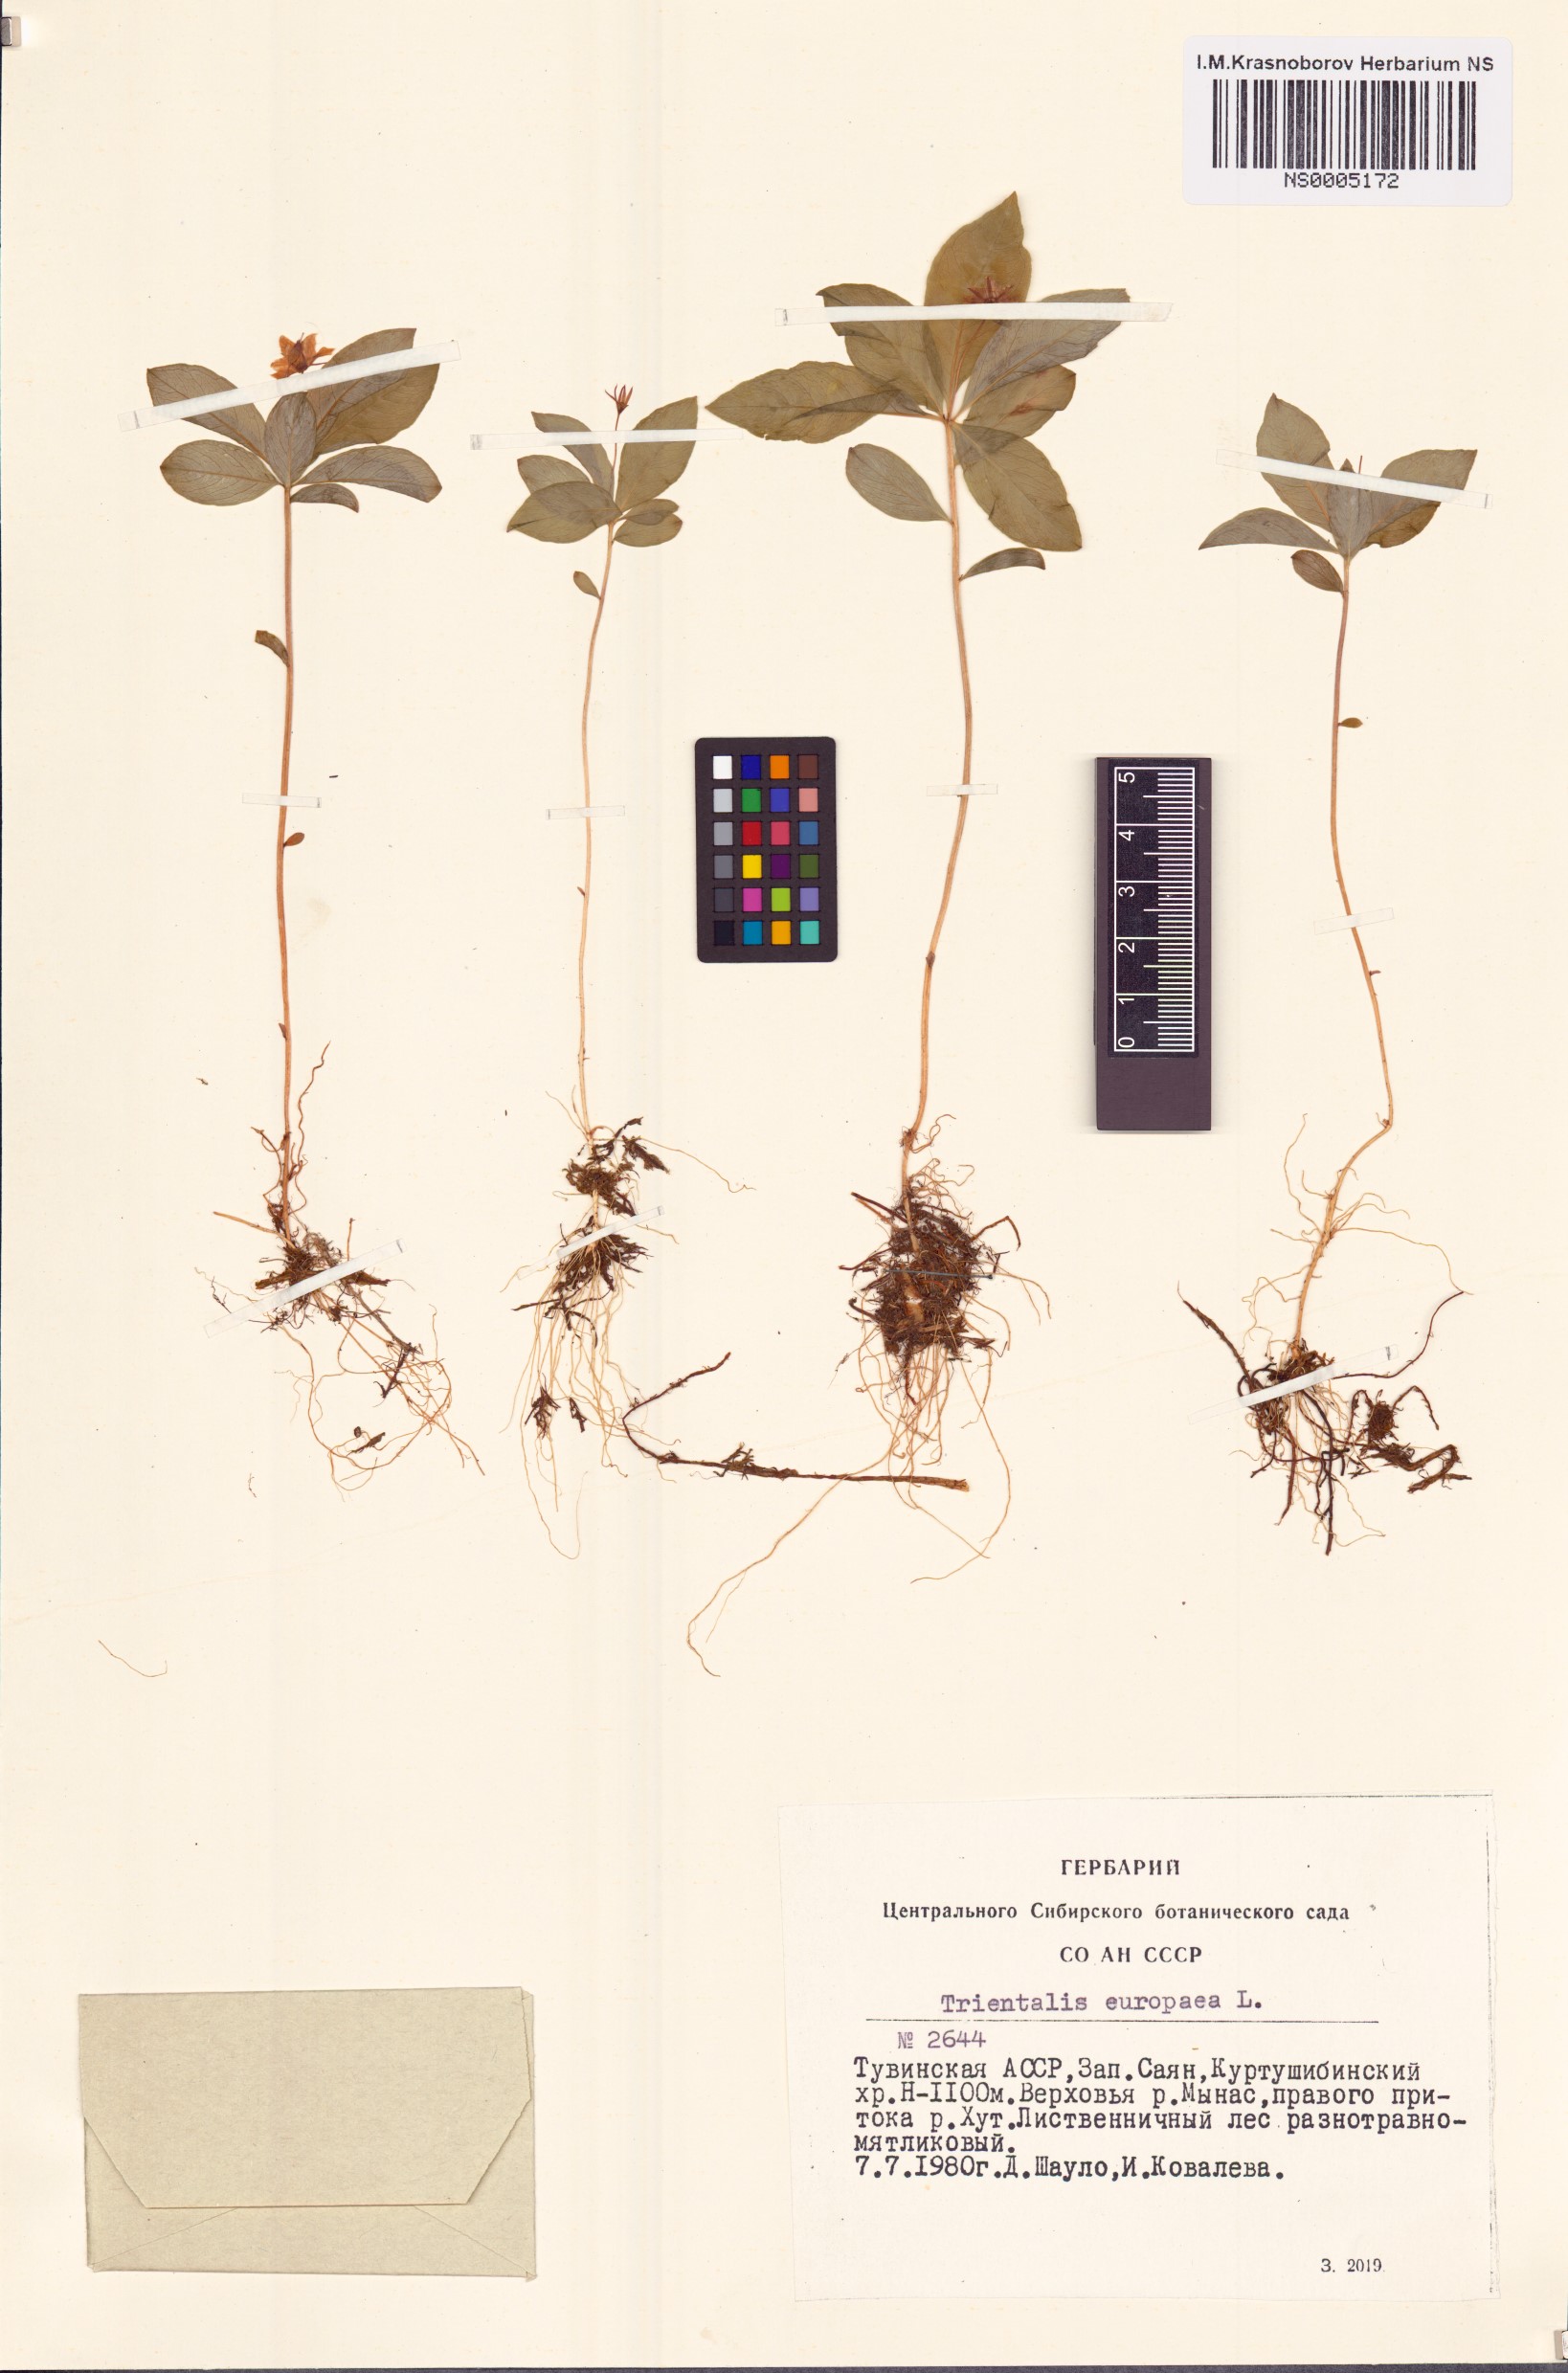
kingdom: Plantae
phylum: Tracheophyta
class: Magnoliopsida
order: Ericales
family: Primulaceae
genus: Lysimachia
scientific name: Lysimachia europaea
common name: Arctic starflower
